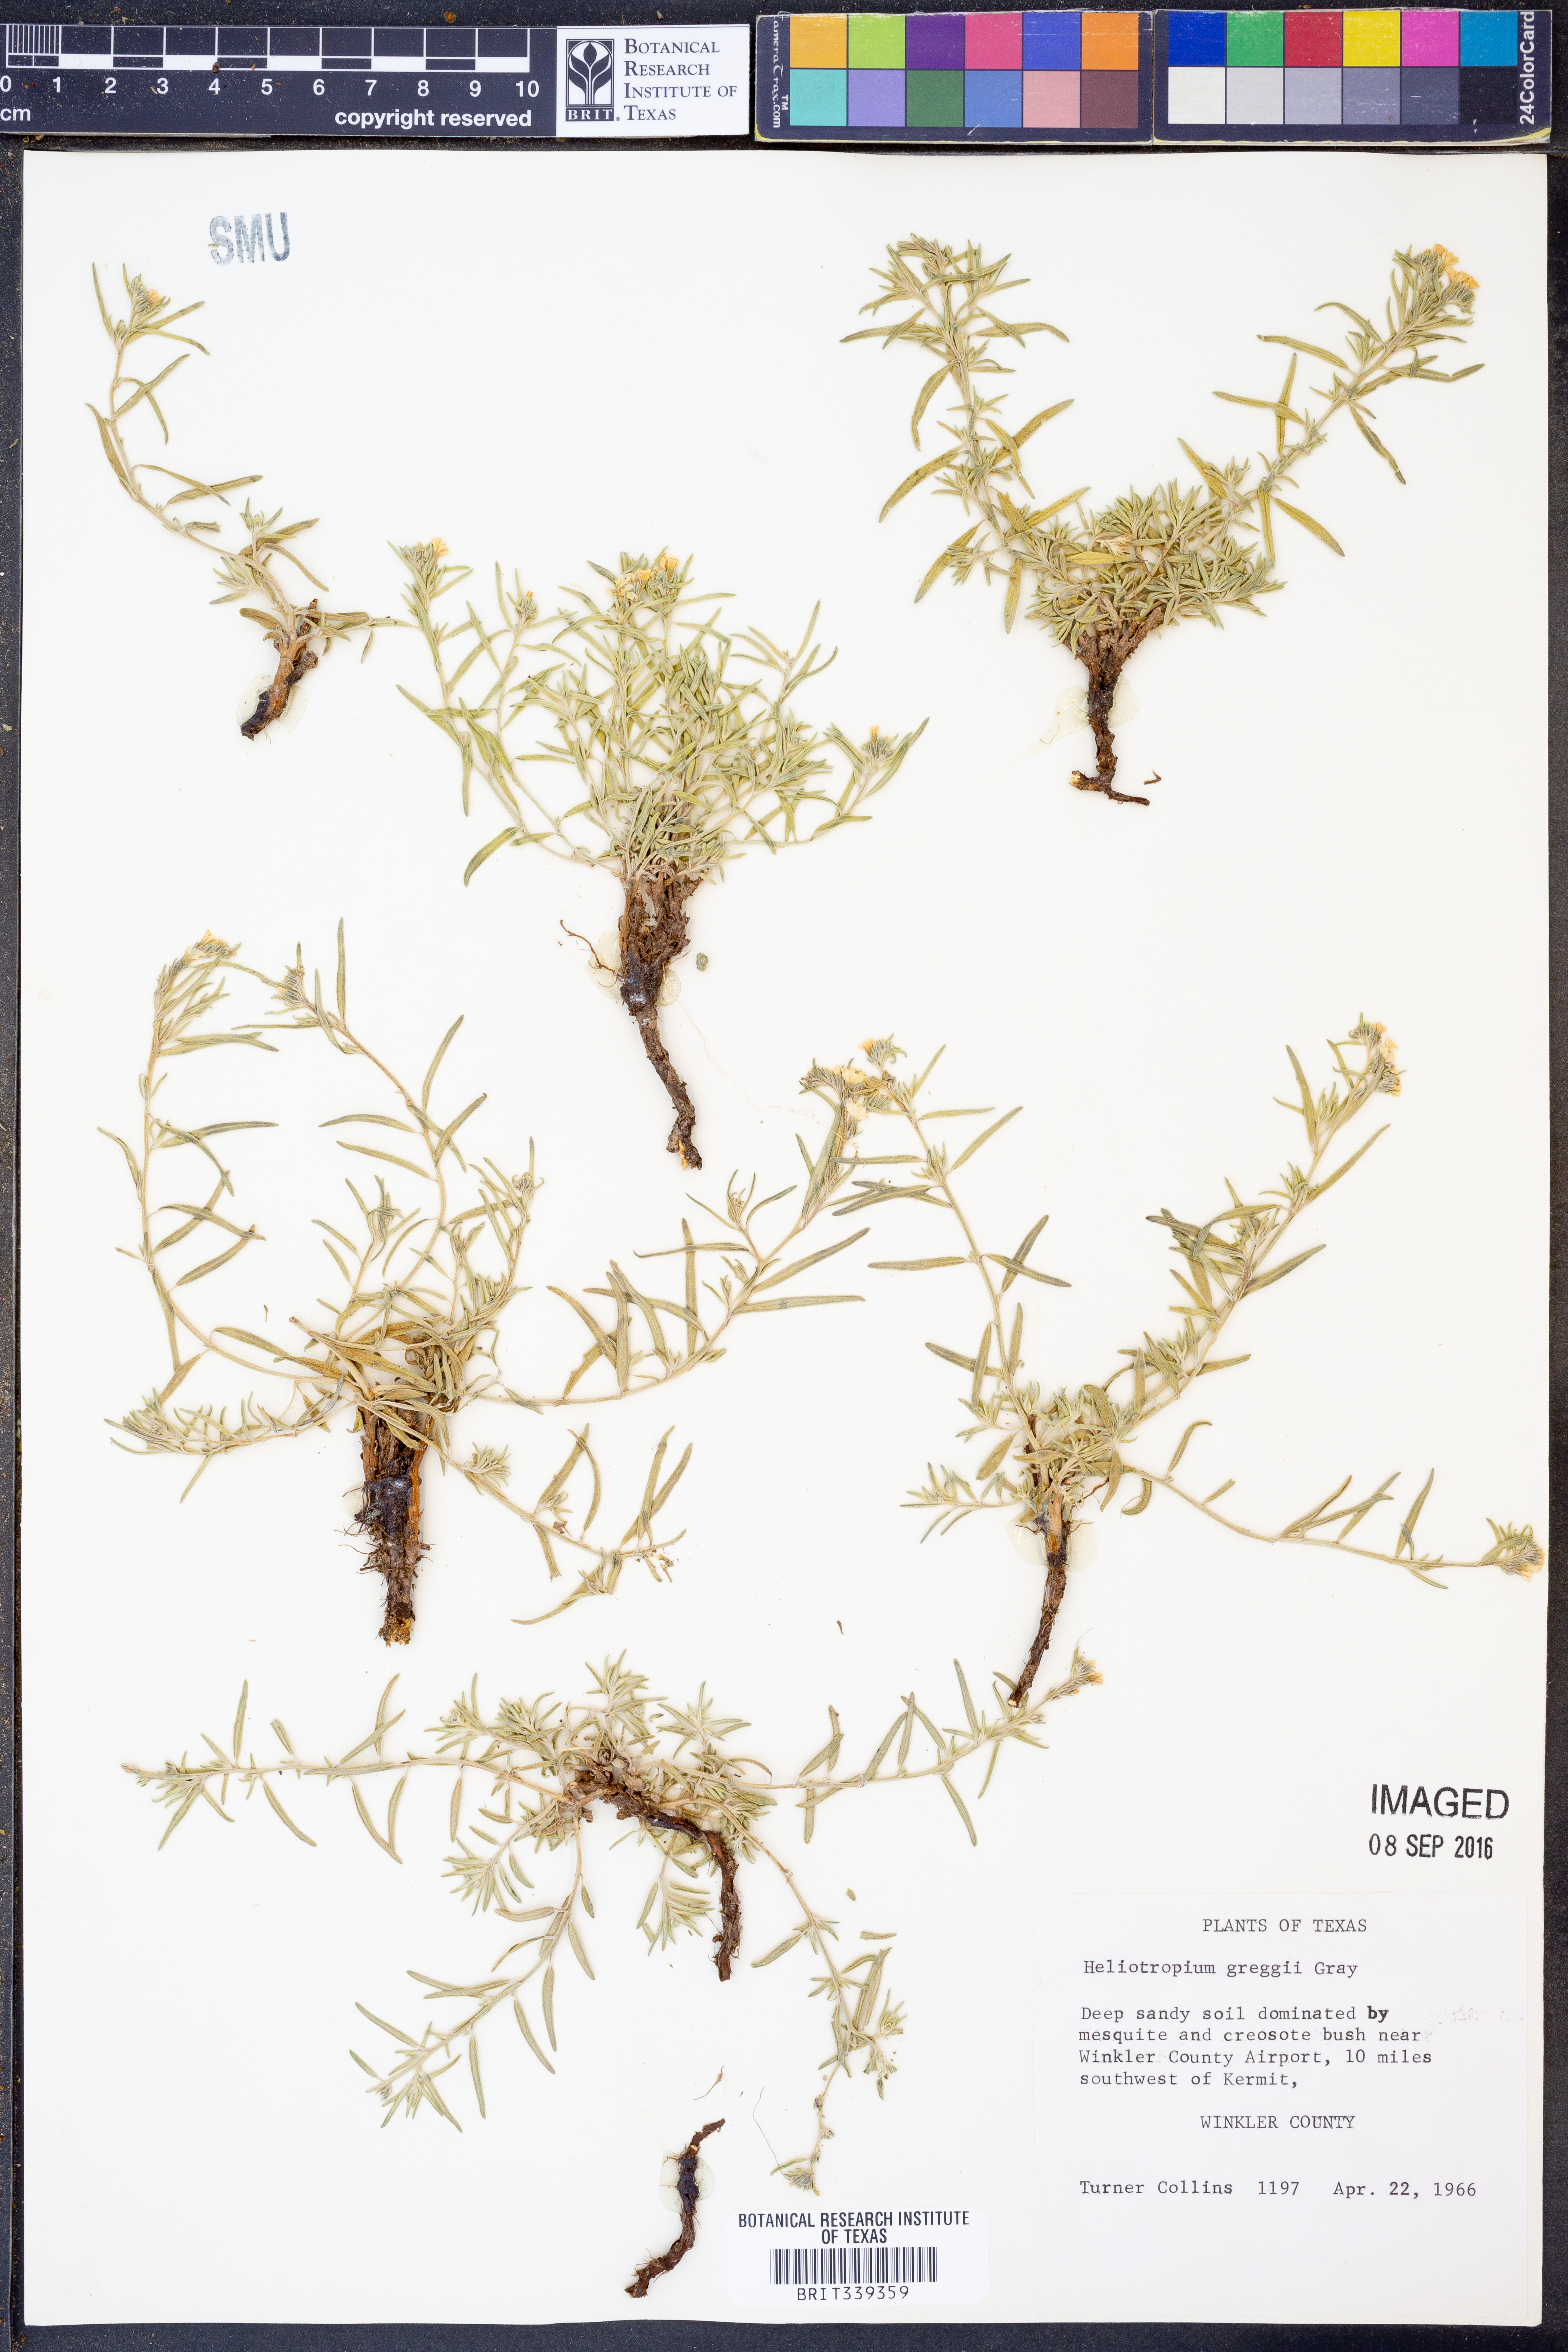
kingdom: Plantae
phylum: Tracheophyta
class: Magnoliopsida
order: Boraginales
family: Heliotropiaceae
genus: Euploca
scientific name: Euploca greggii
